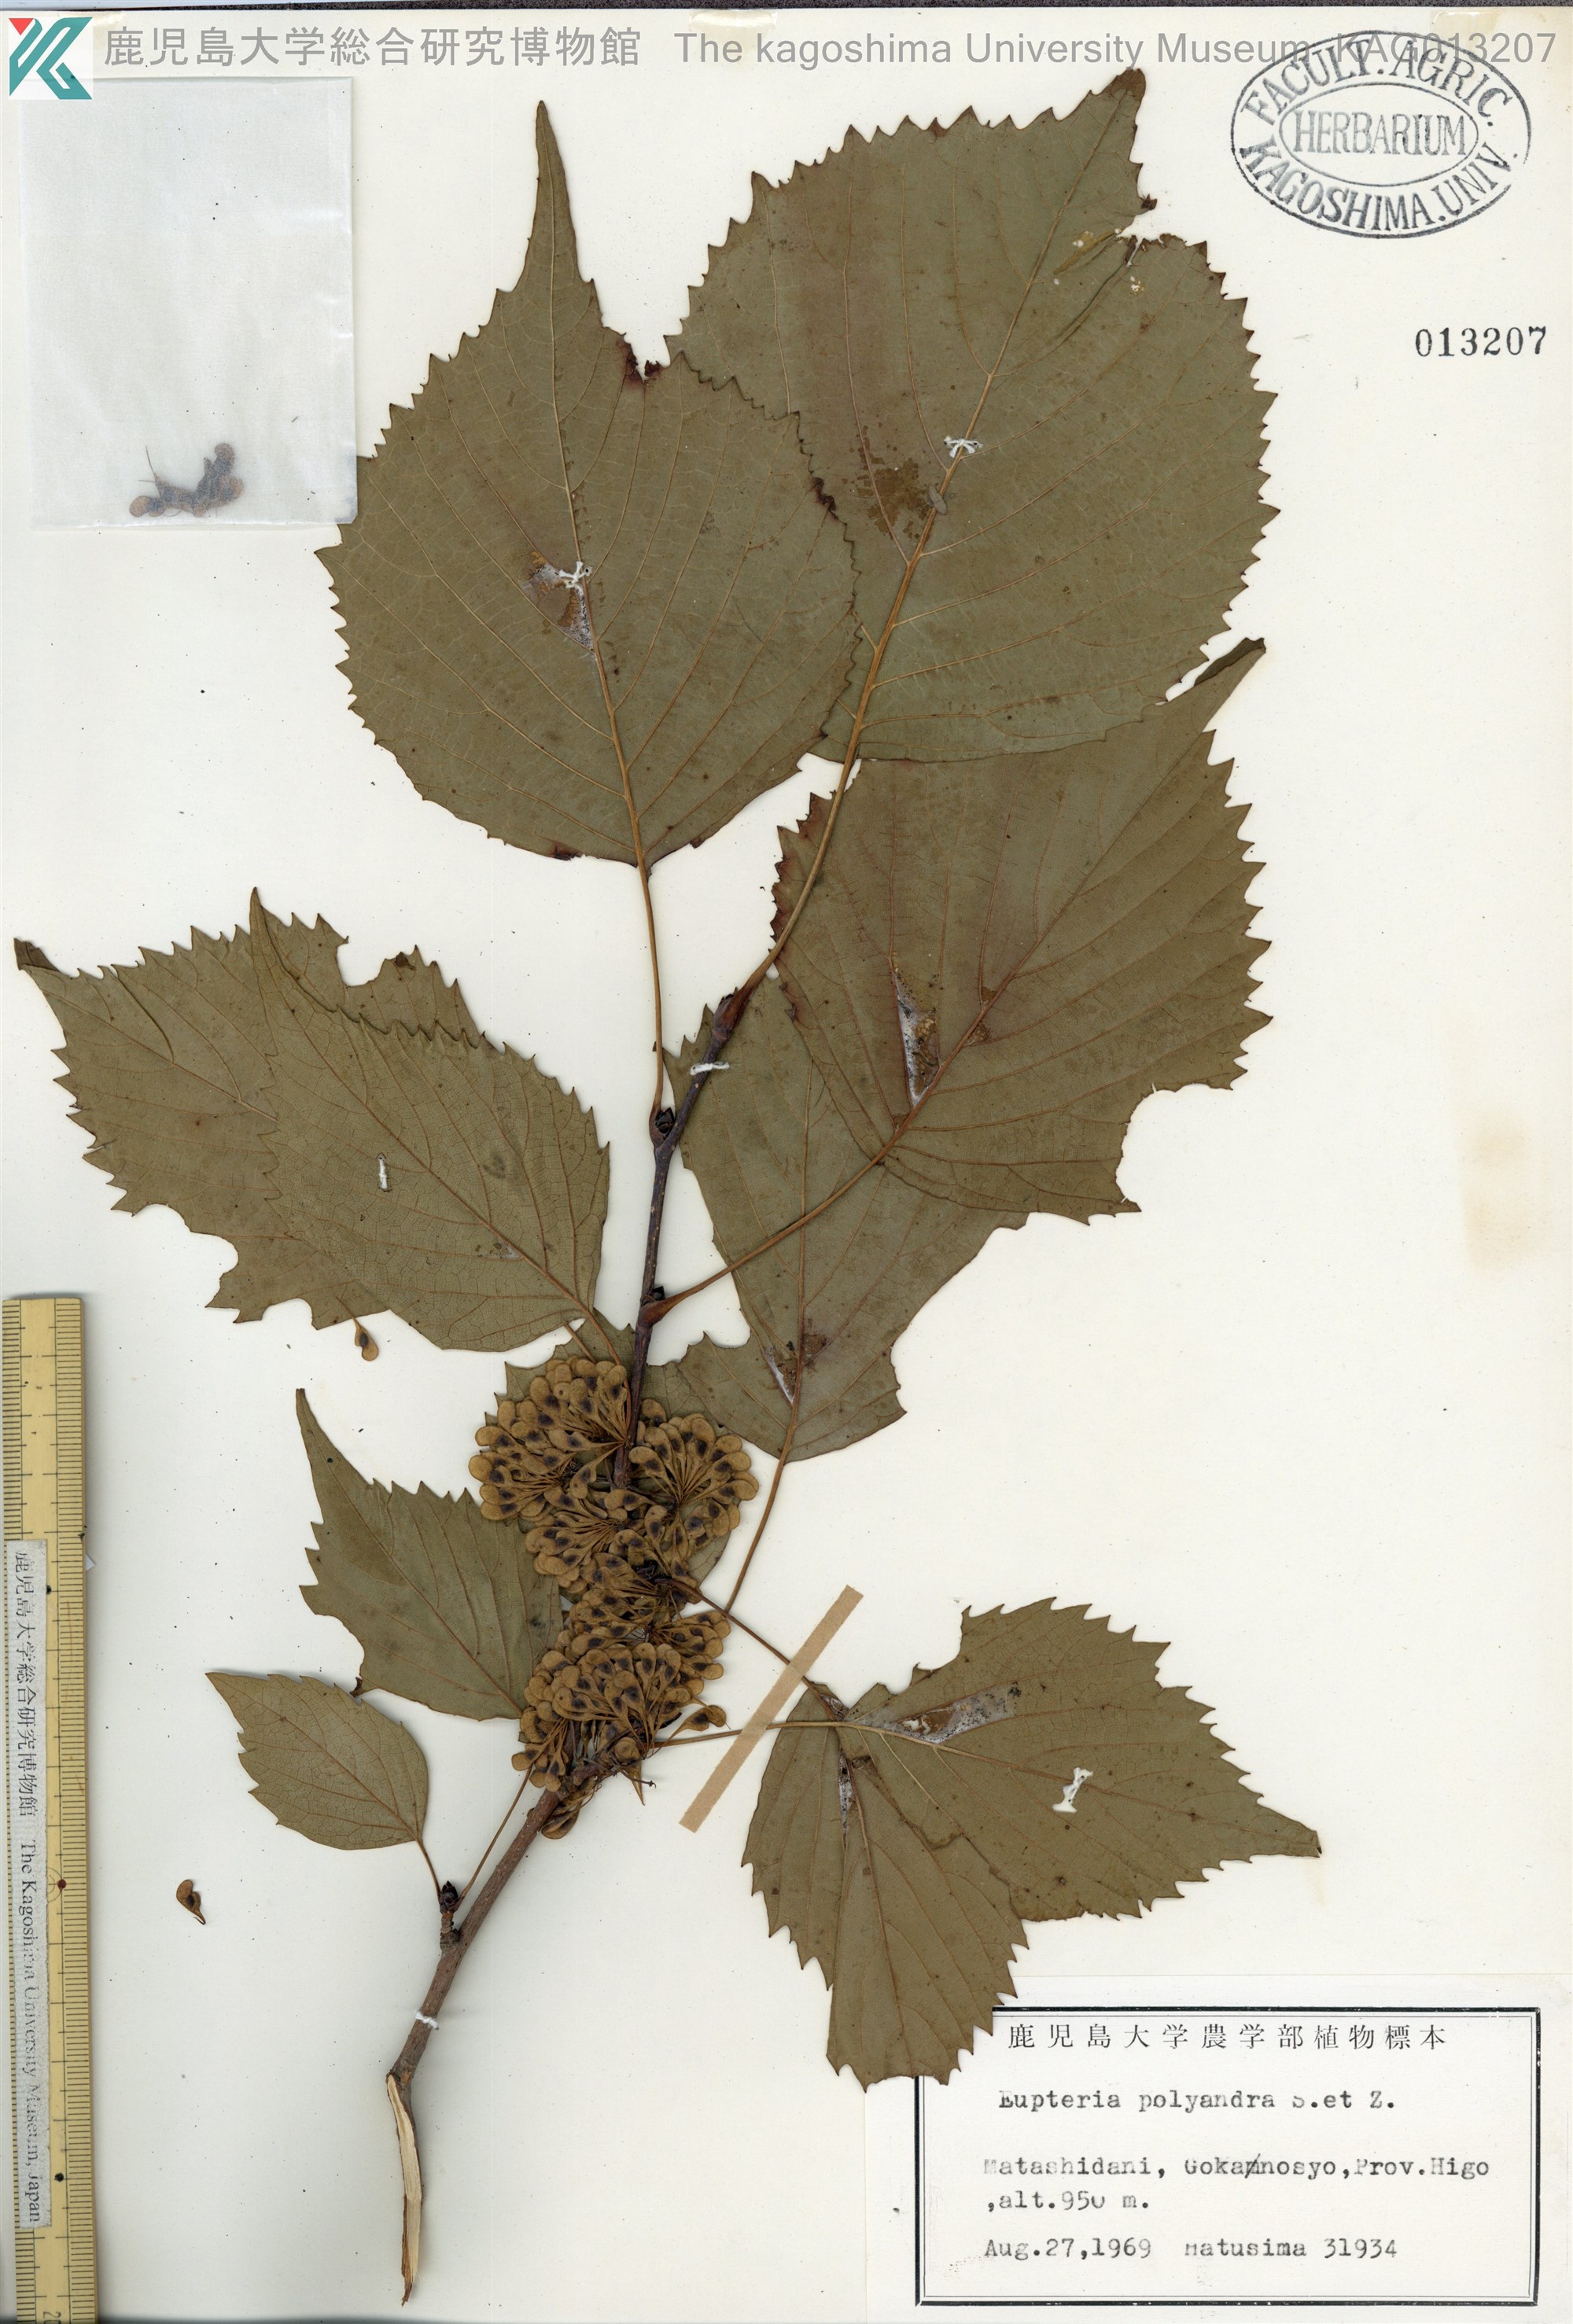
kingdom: Plantae
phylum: Tracheophyta
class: Magnoliopsida
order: Ranunculales
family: Eupteleaceae
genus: Euptelea
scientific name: Euptelea polyandra
